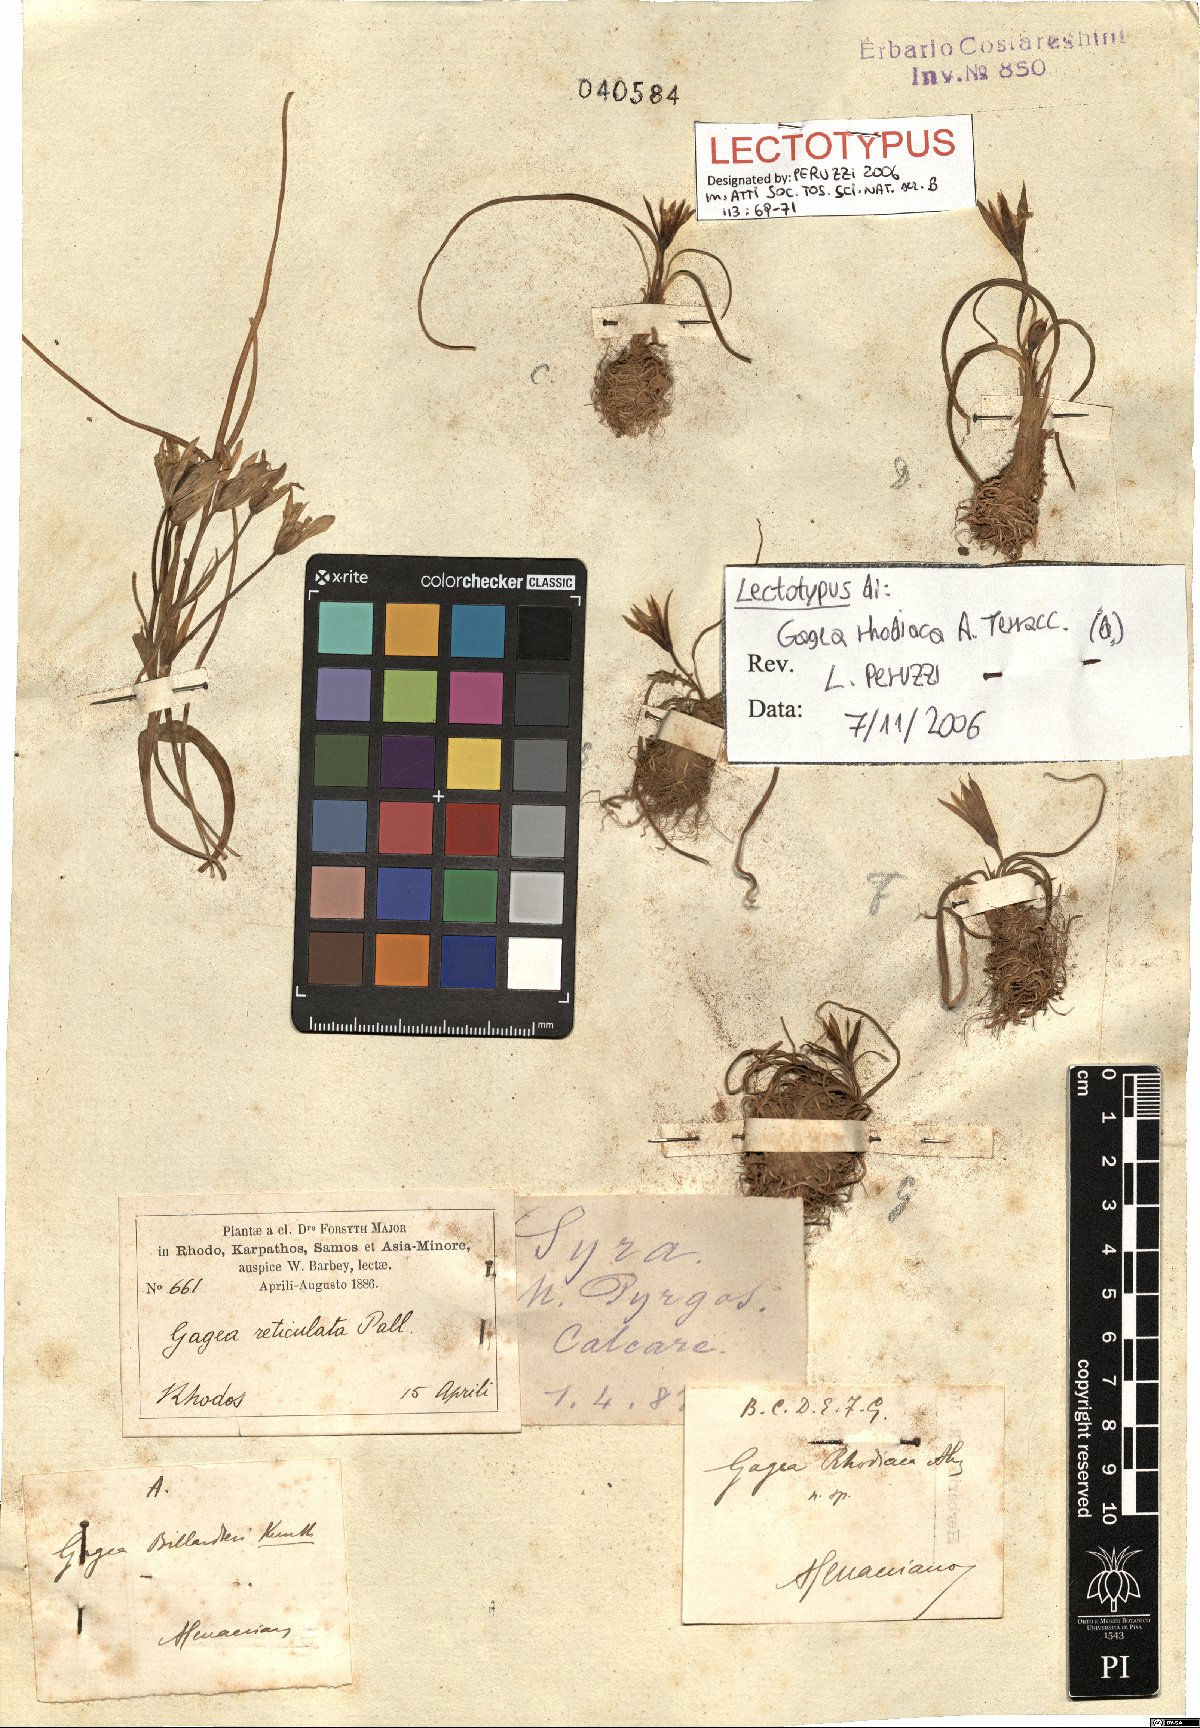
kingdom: Plantae
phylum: Tracheophyta
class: Liliopsida
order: Liliales
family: Liliaceae
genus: Gagea
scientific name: Gagea rigida
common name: Stiff gagea
